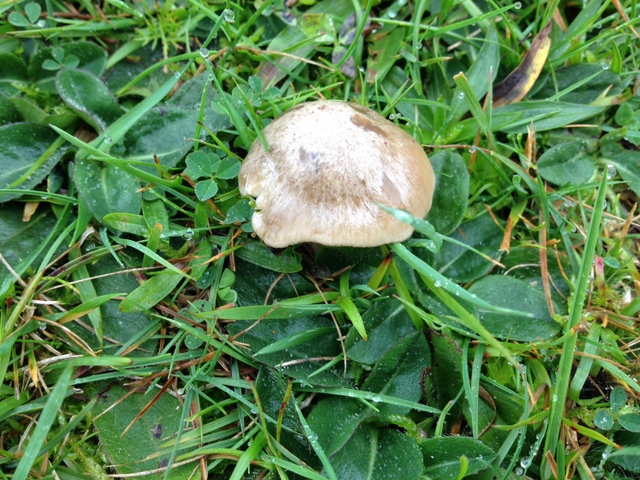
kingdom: Fungi
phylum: Basidiomycota
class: Agaricomycetes
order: Agaricales
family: Entolomataceae
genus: Entoloma
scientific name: Entoloma prunuloides
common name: mel-rødblad
